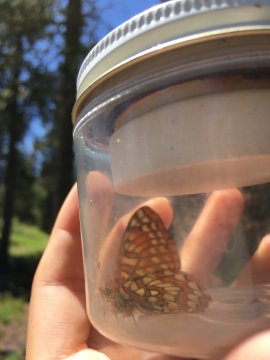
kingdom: Animalia
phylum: Arthropoda
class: Insecta
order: Lepidoptera
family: Nymphalidae
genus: Occidryas
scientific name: Occidryas editha
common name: Edith's Checkerspot
